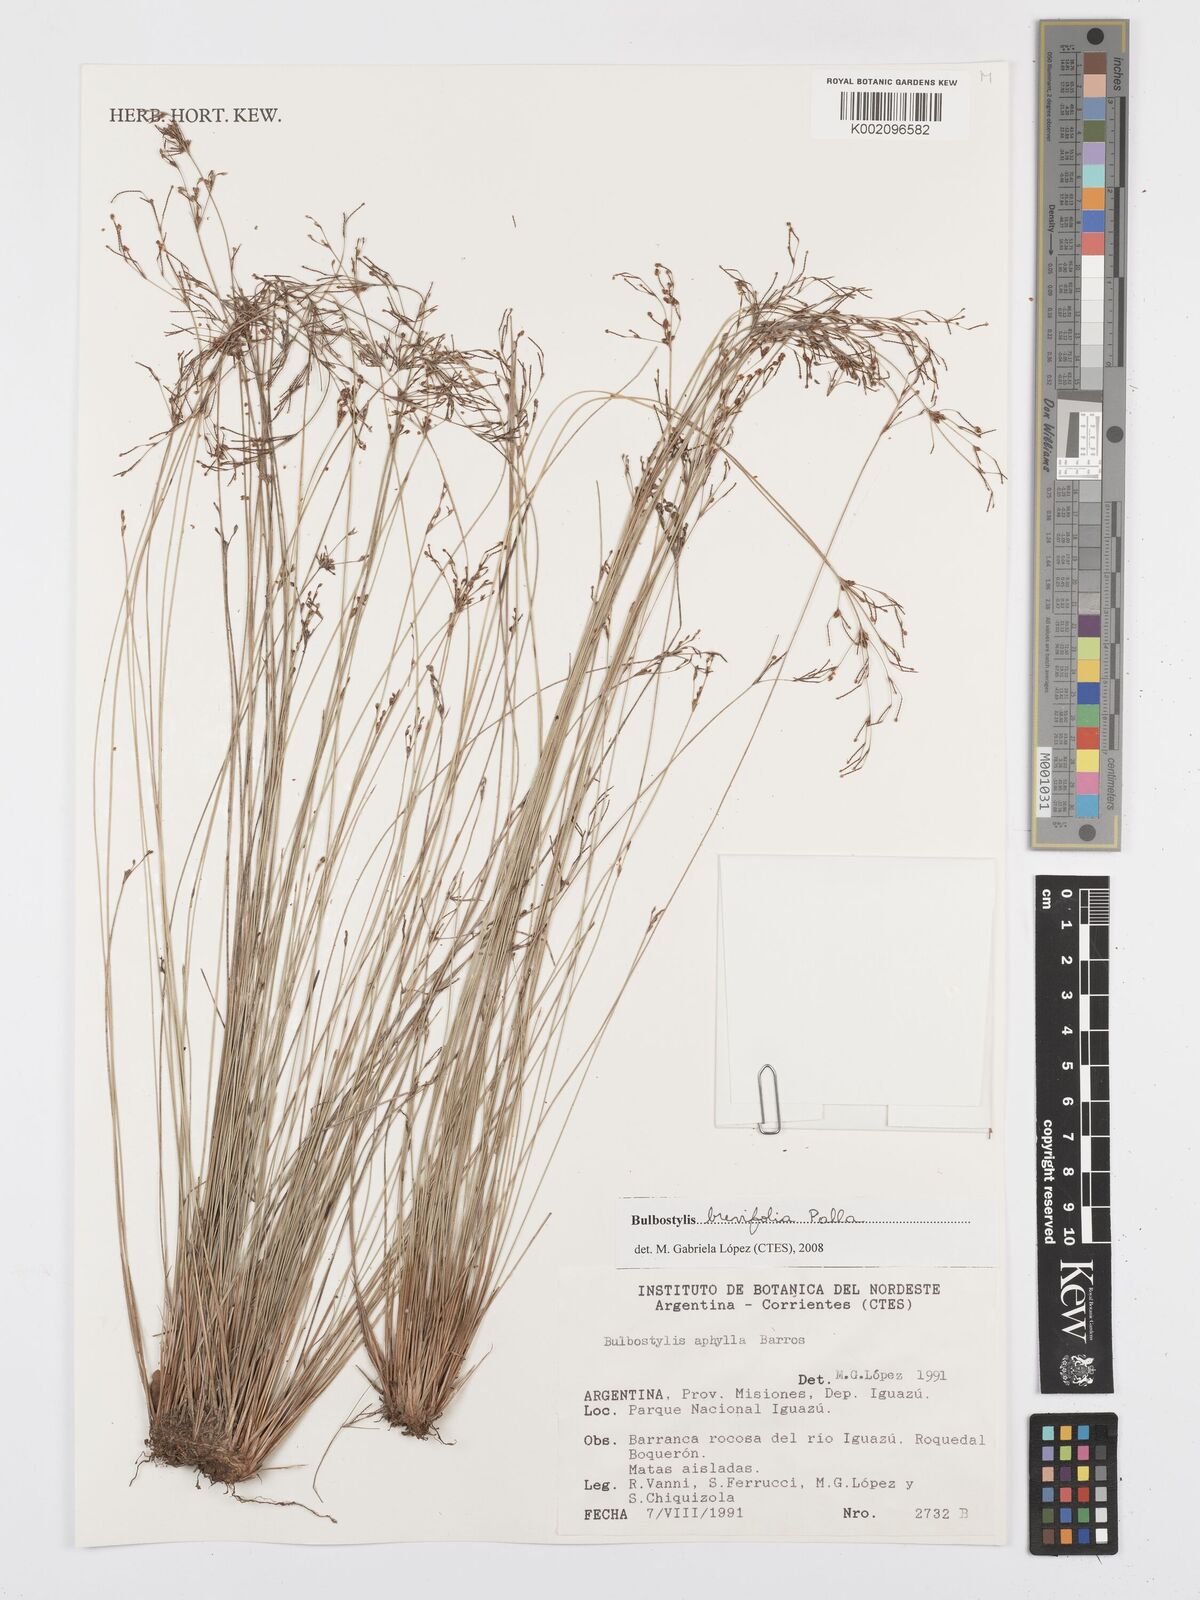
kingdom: Plantae
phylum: Tracheophyta
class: Liliopsida
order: Poales
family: Cyperaceae
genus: Bulbostylis
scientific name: Bulbostylis brevifolia
